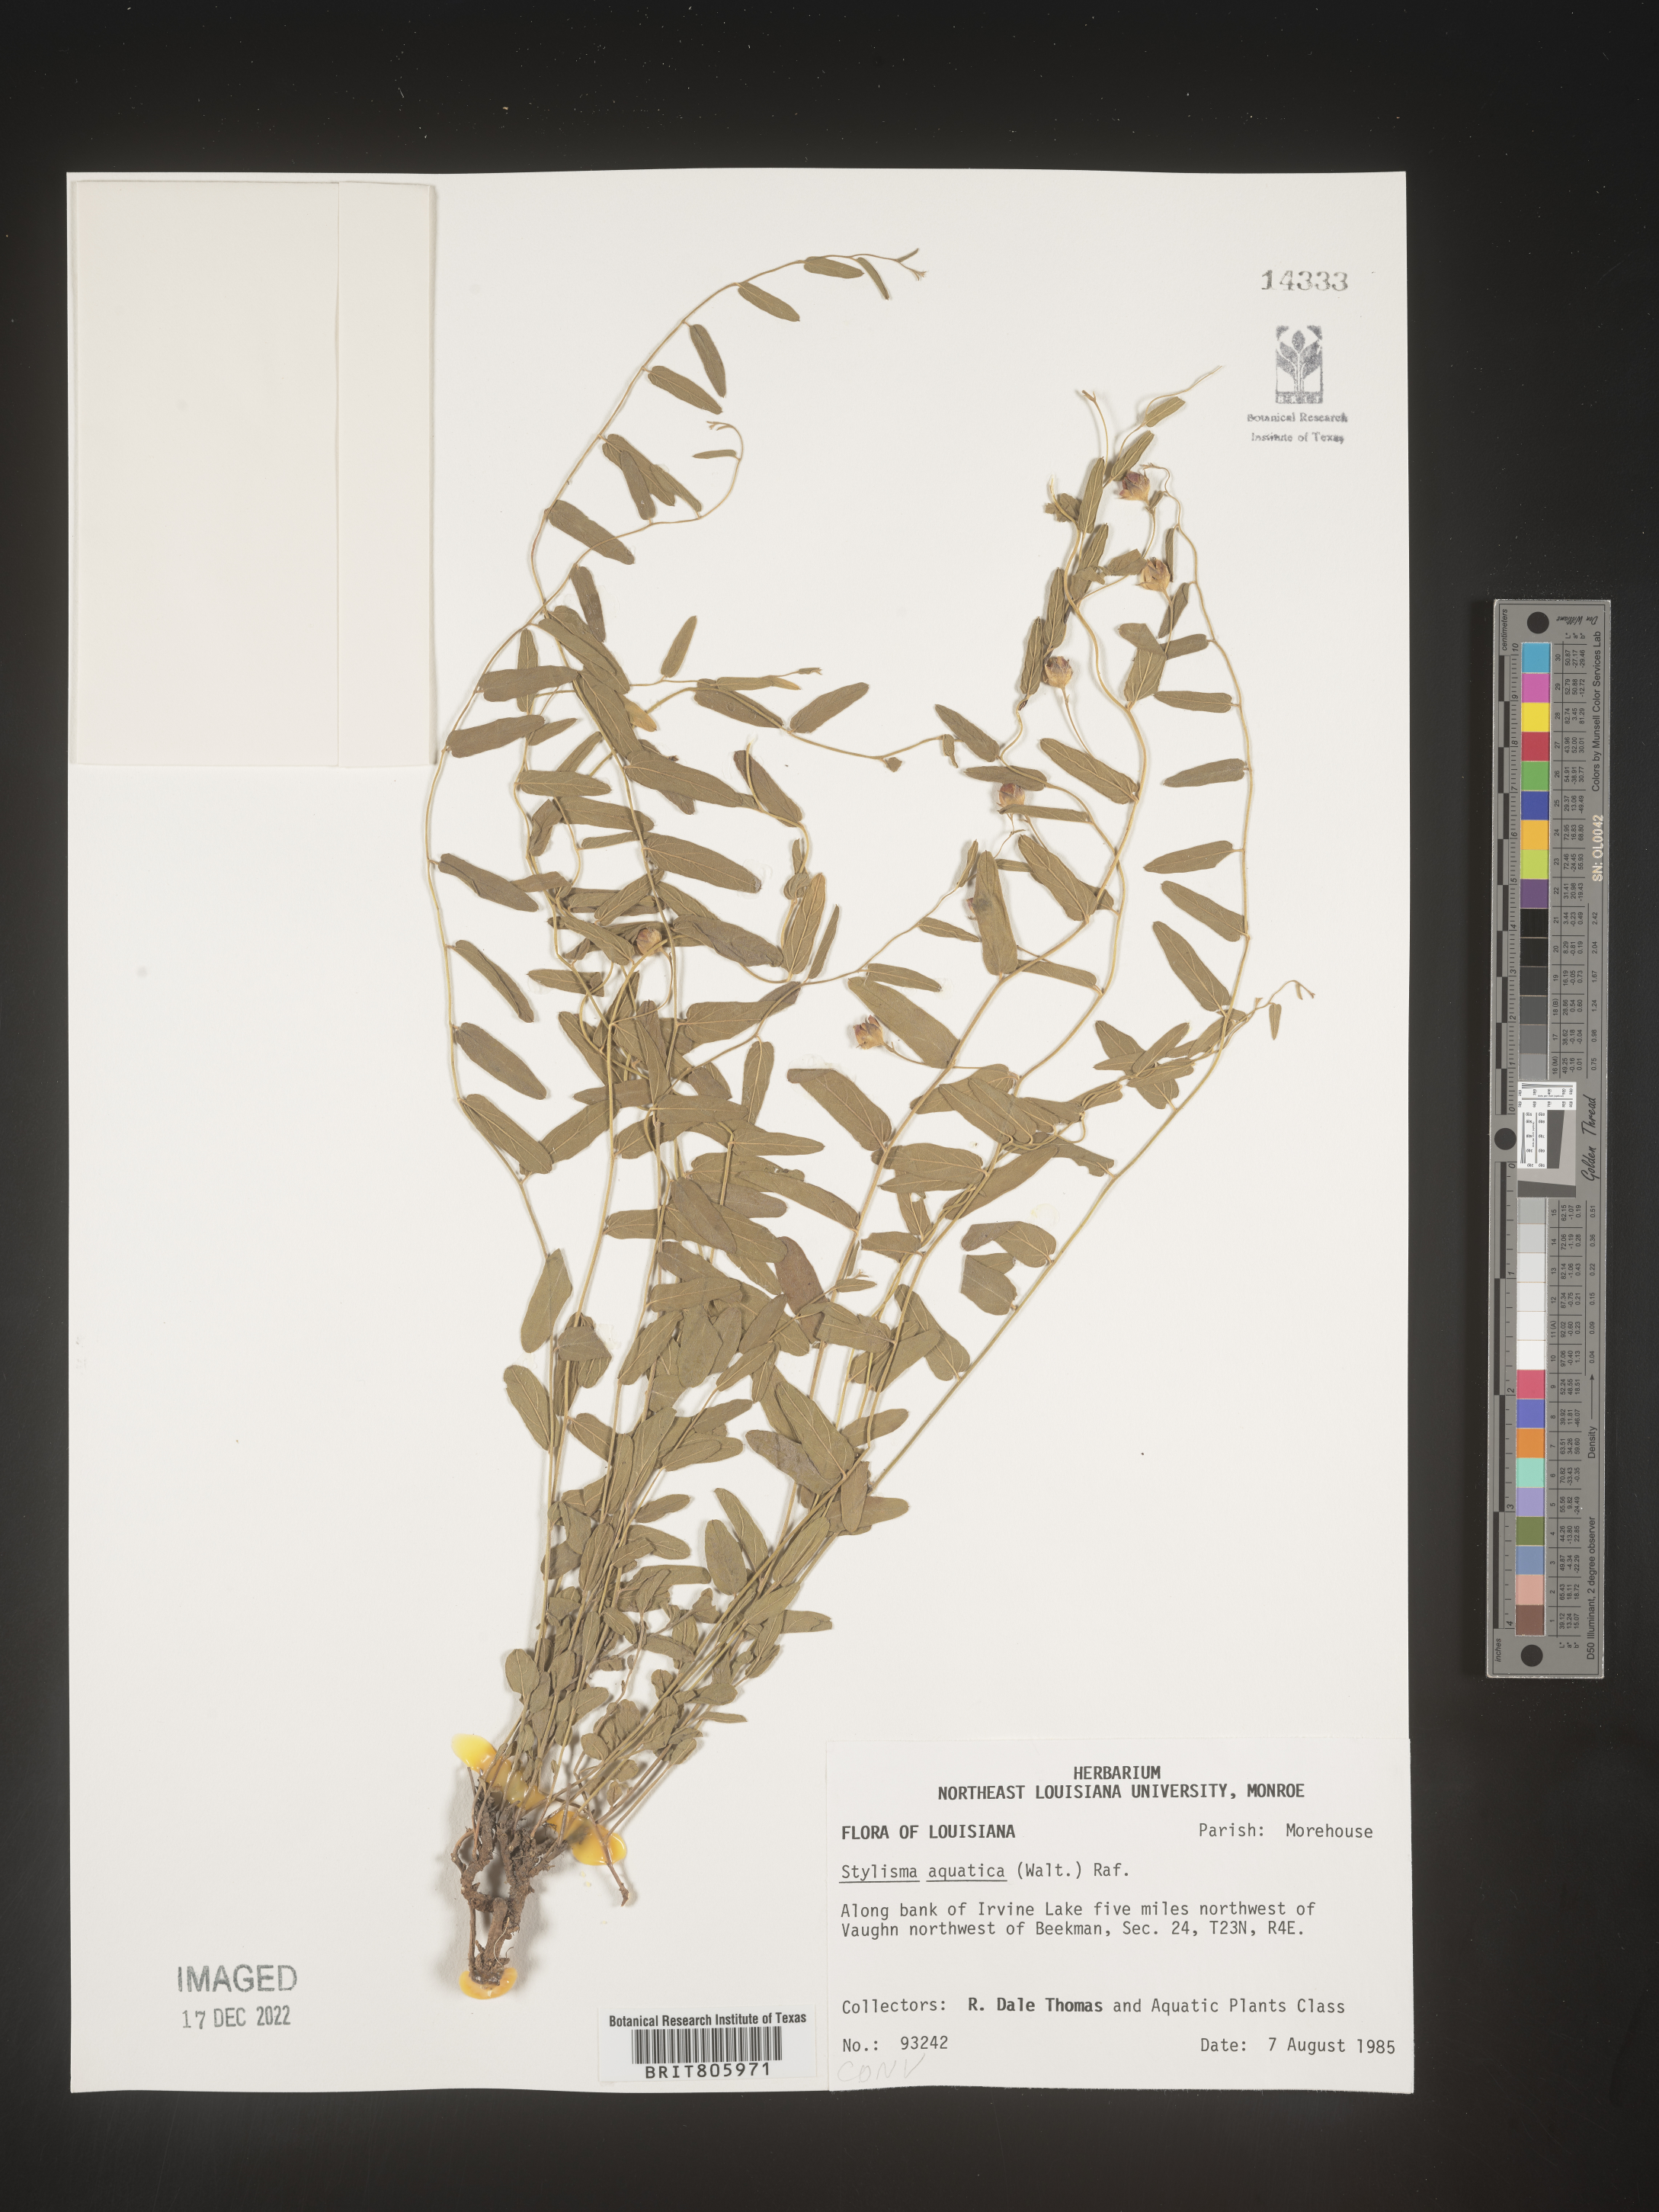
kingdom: Plantae
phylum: Tracheophyta
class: Magnoliopsida
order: Solanales
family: Convolvulaceae
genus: Stylisma
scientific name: Stylisma
